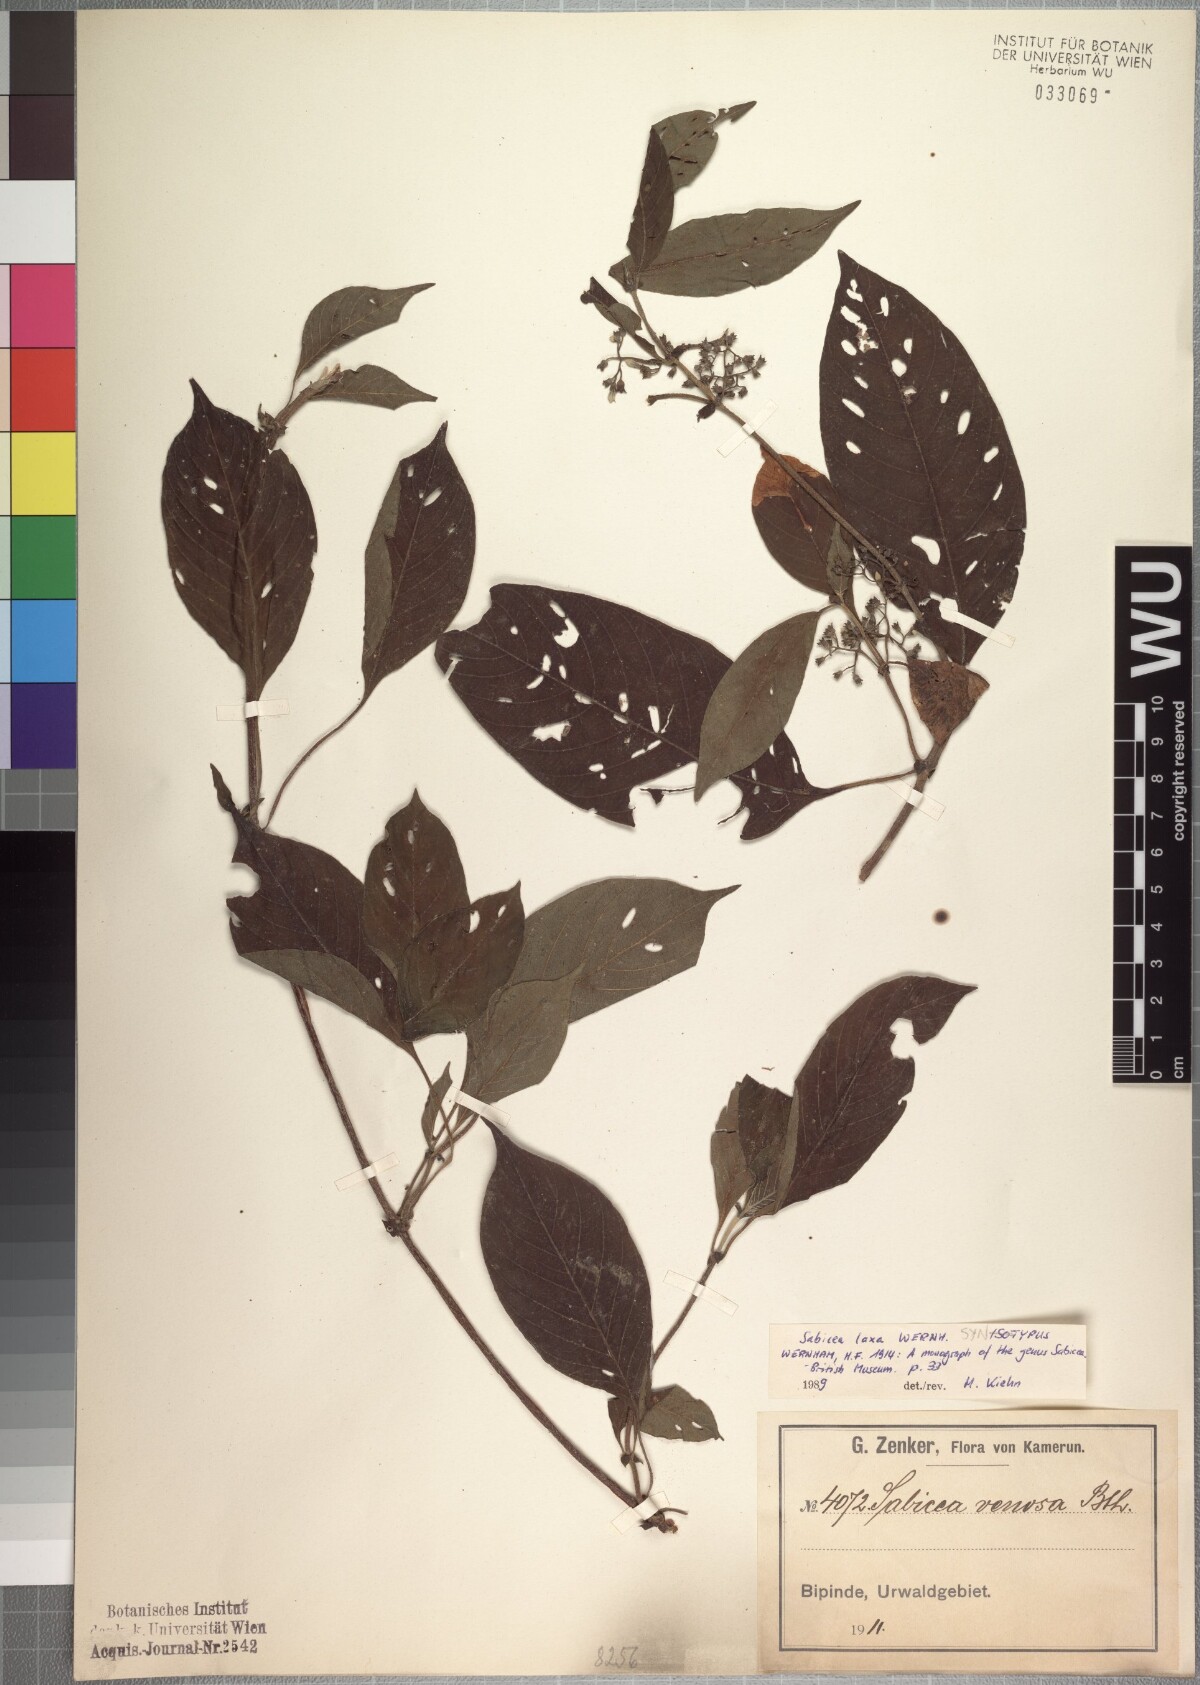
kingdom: Plantae
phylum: Tracheophyta
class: Magnoliopsida
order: Gentianales
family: Rubiaceae
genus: Sabicea
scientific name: Sabicea laxa
